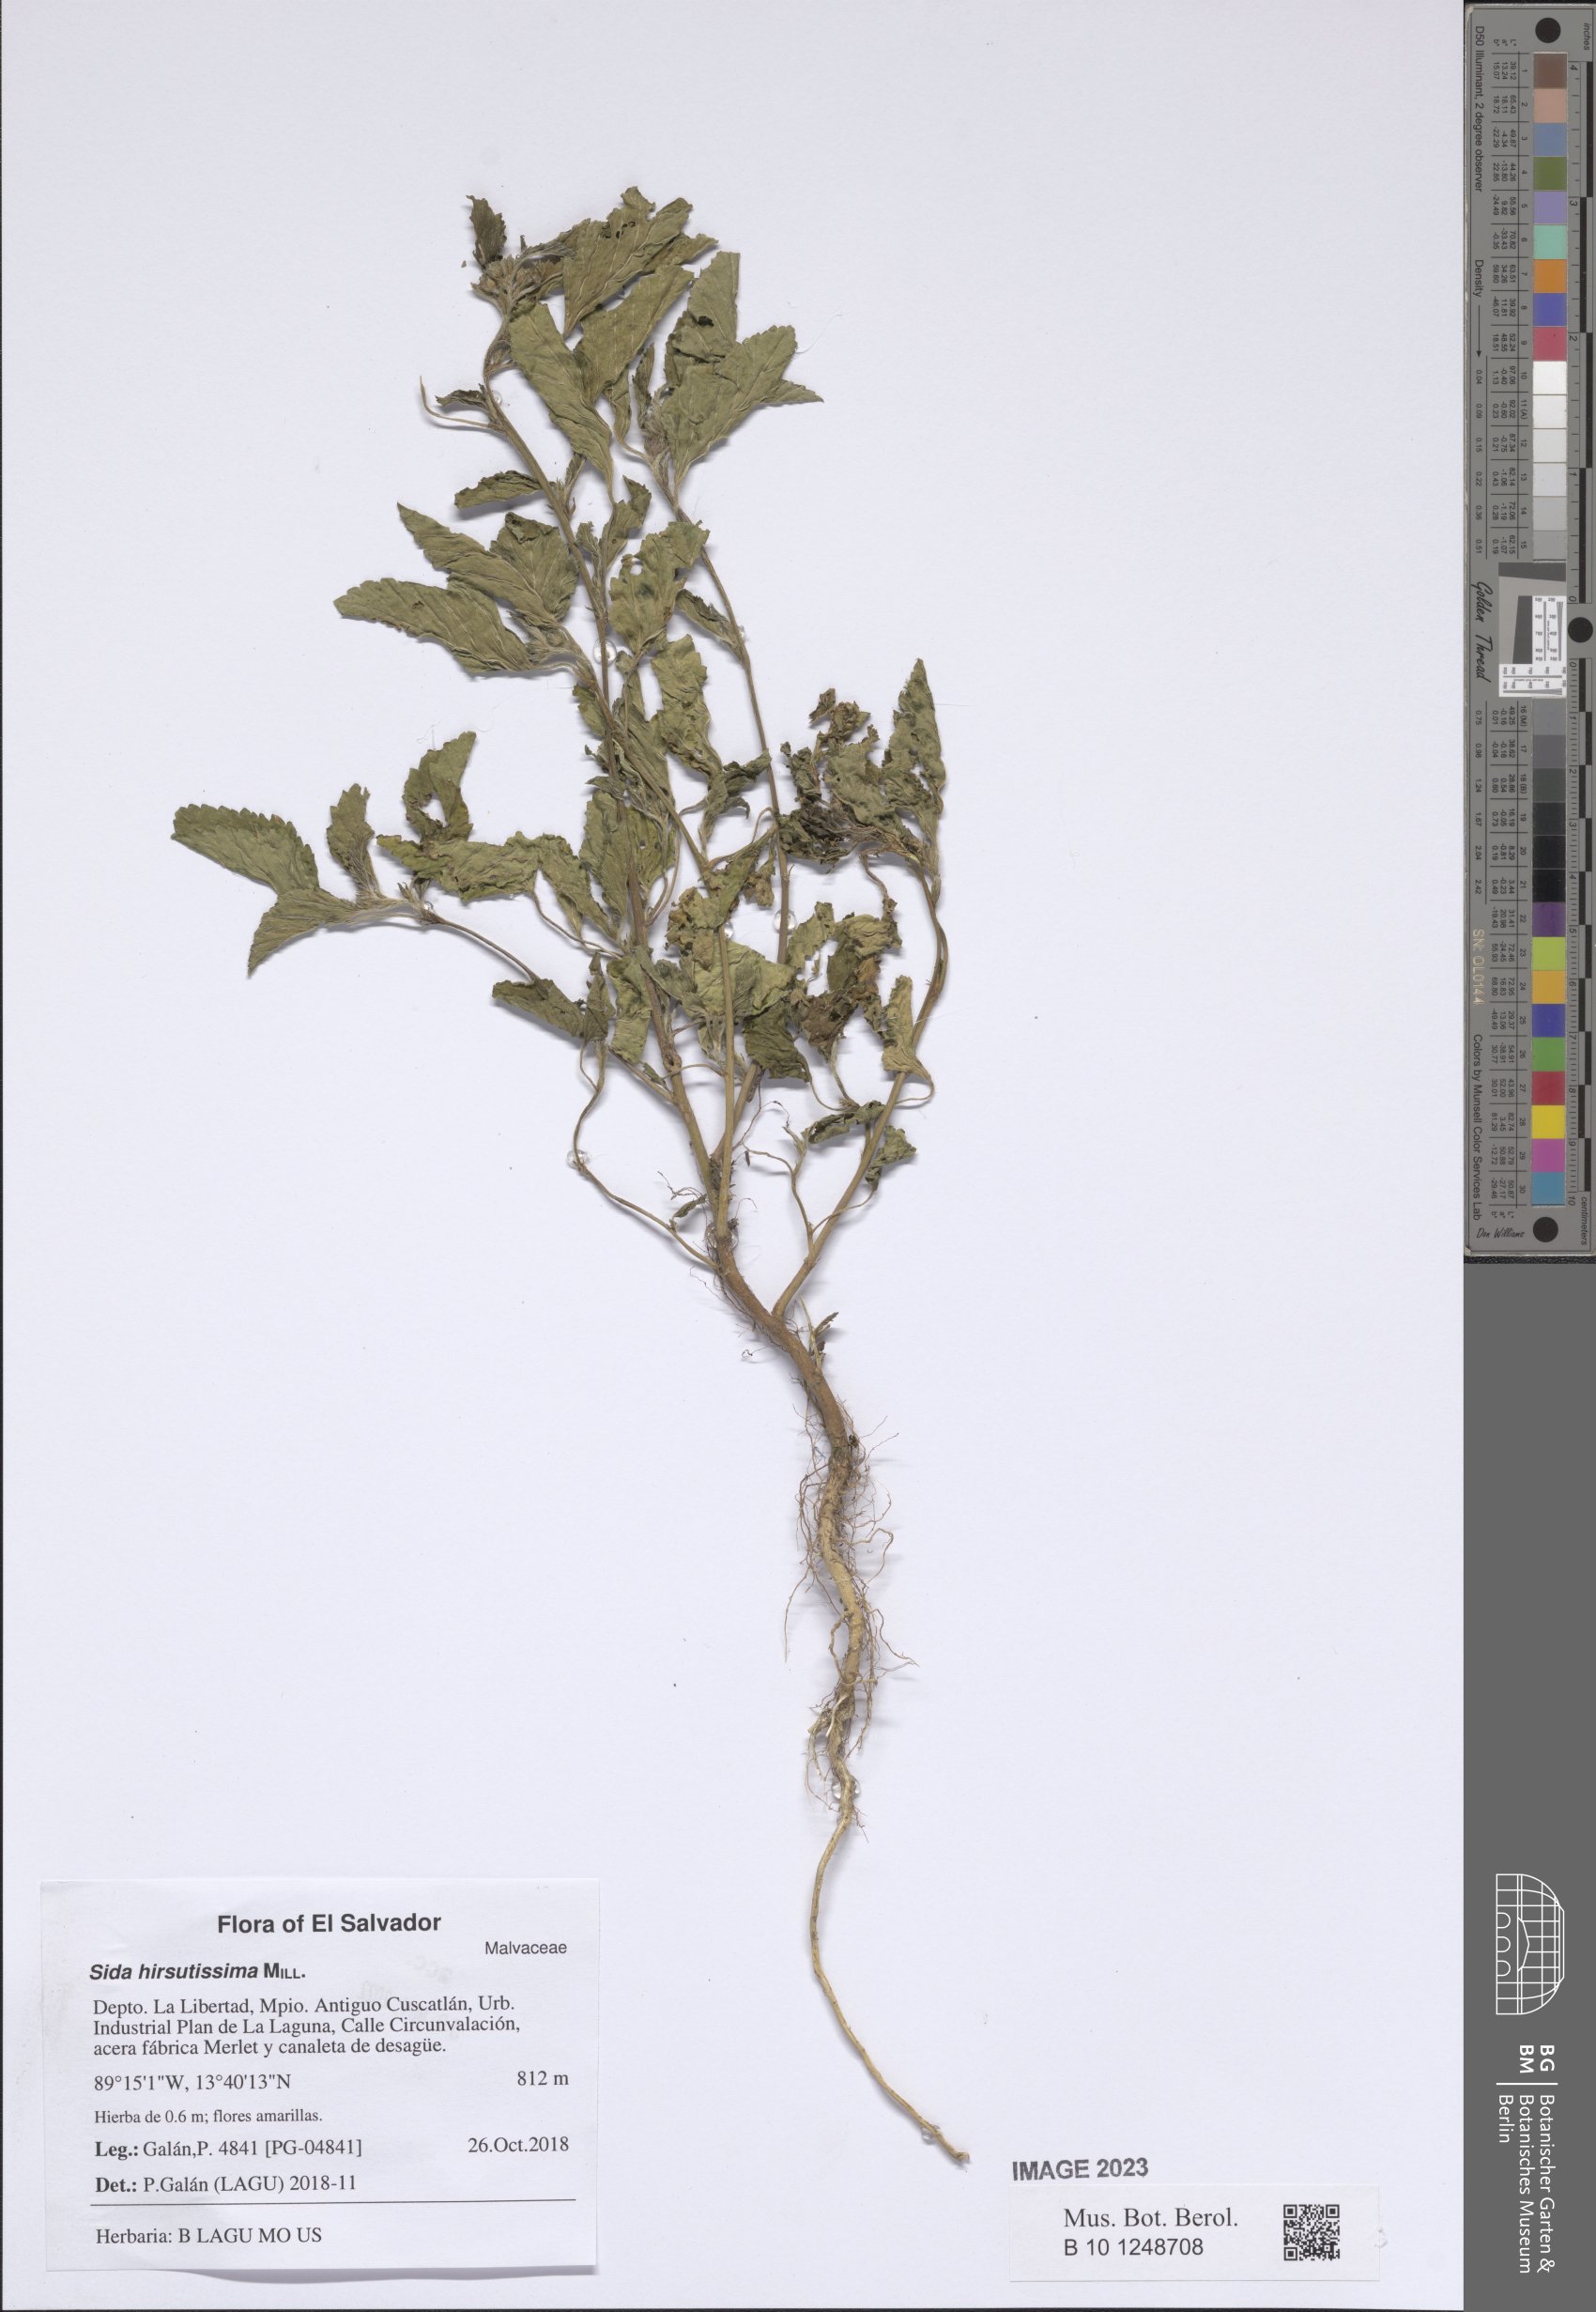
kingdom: Plantae
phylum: Tracheophyta
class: Magnoliopsida
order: Malvales
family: Malvaceae
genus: Malvastrum
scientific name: Malvastrum coromandelianum
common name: Threelobe false mallow
